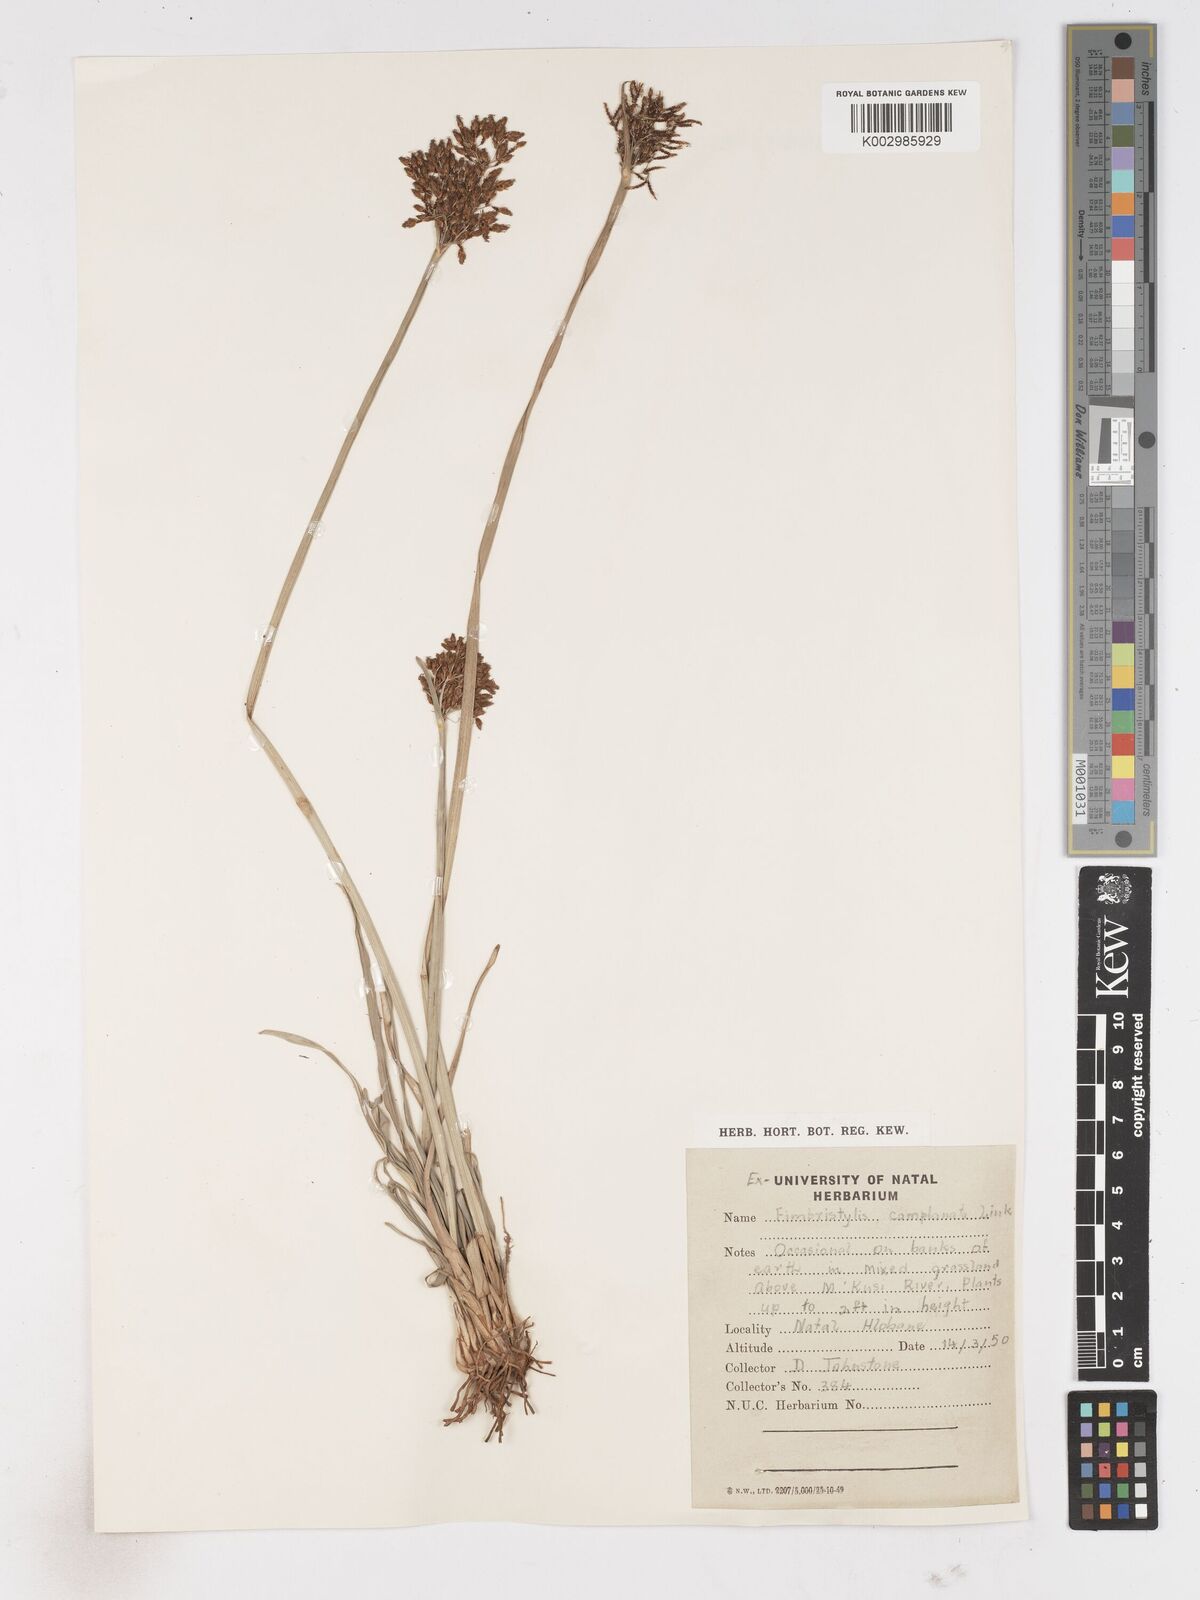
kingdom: Plantae
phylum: Tracheophyta
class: Liliopsida
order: Poales
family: Cyperaceae
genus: Fimbristylis
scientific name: Fimbristylis complanata
